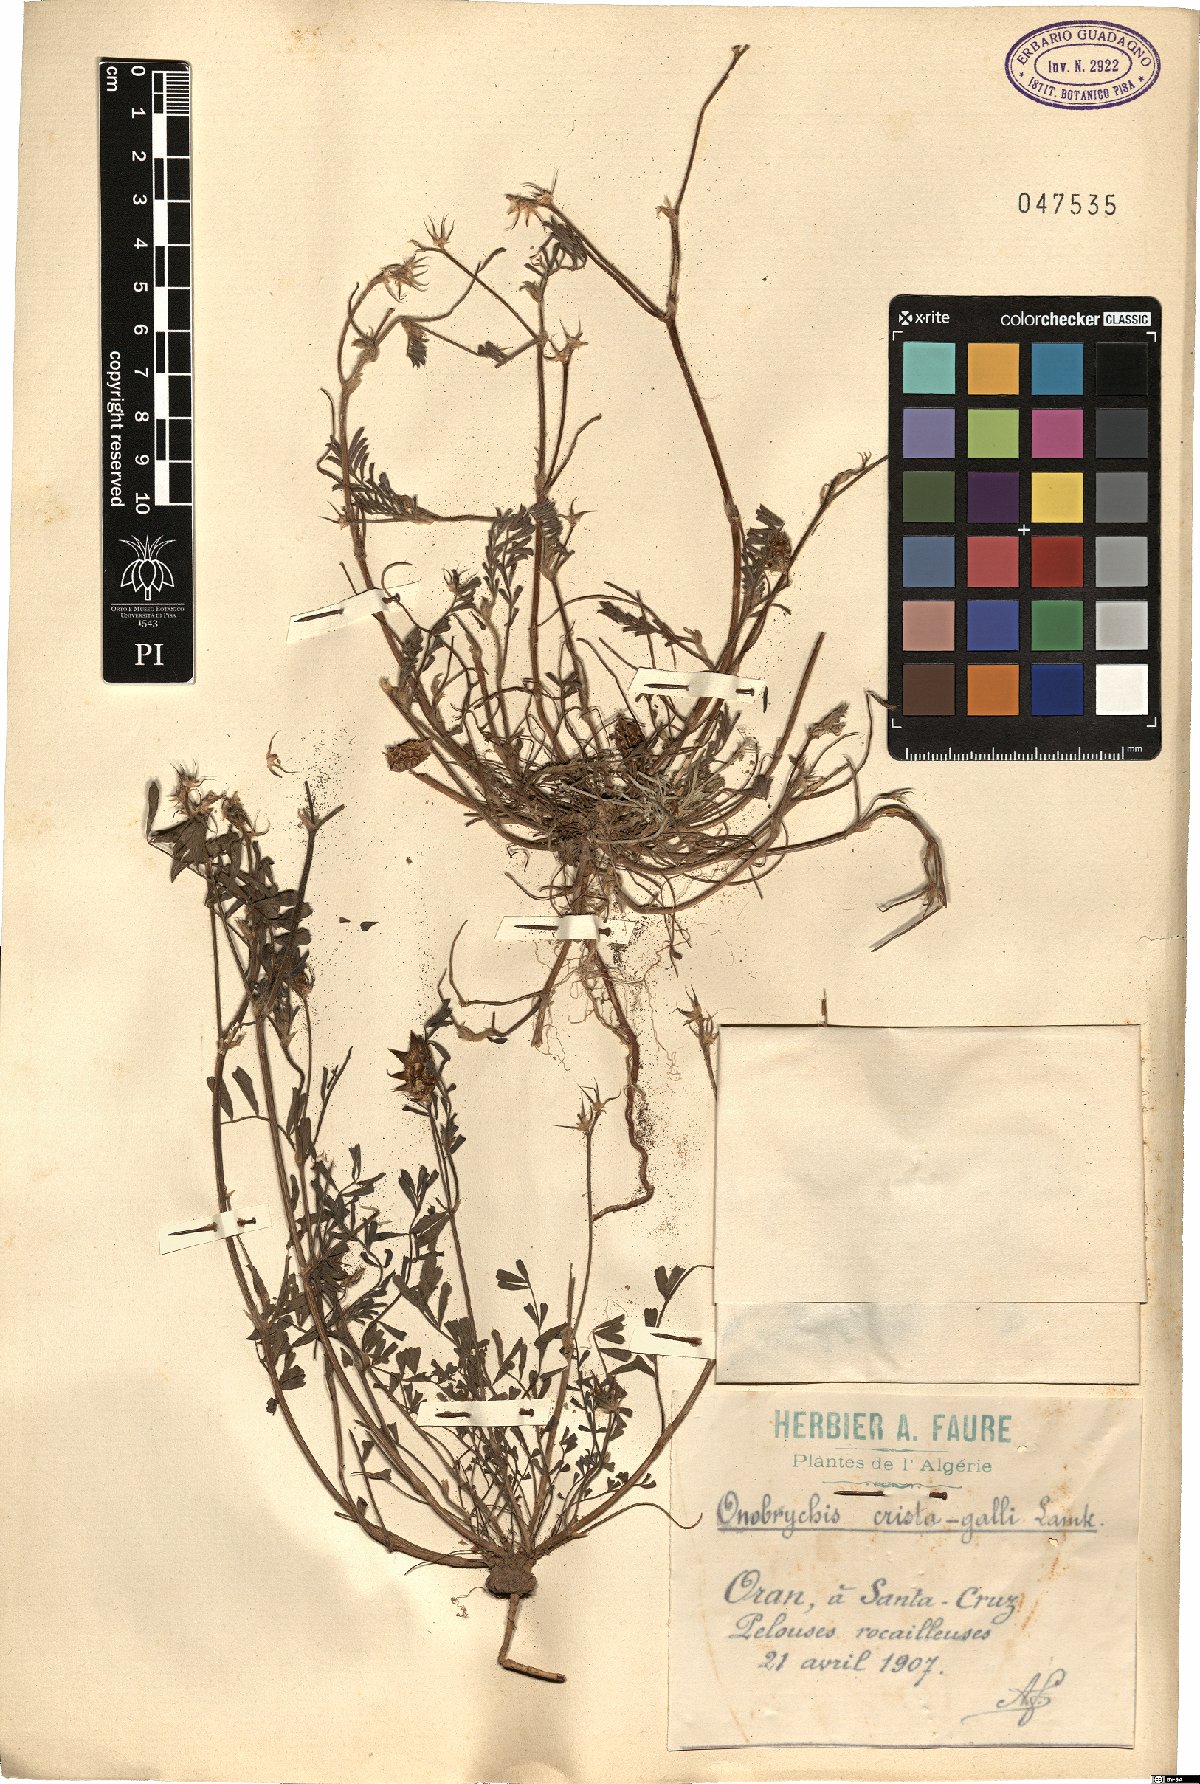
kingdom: Plantae
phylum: Tracheophyta
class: Magnoliopsida
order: Fabales
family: Fabaceae
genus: Onobrychis
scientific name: Onobrychis crista-galli
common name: Cockscomb sainfoin
